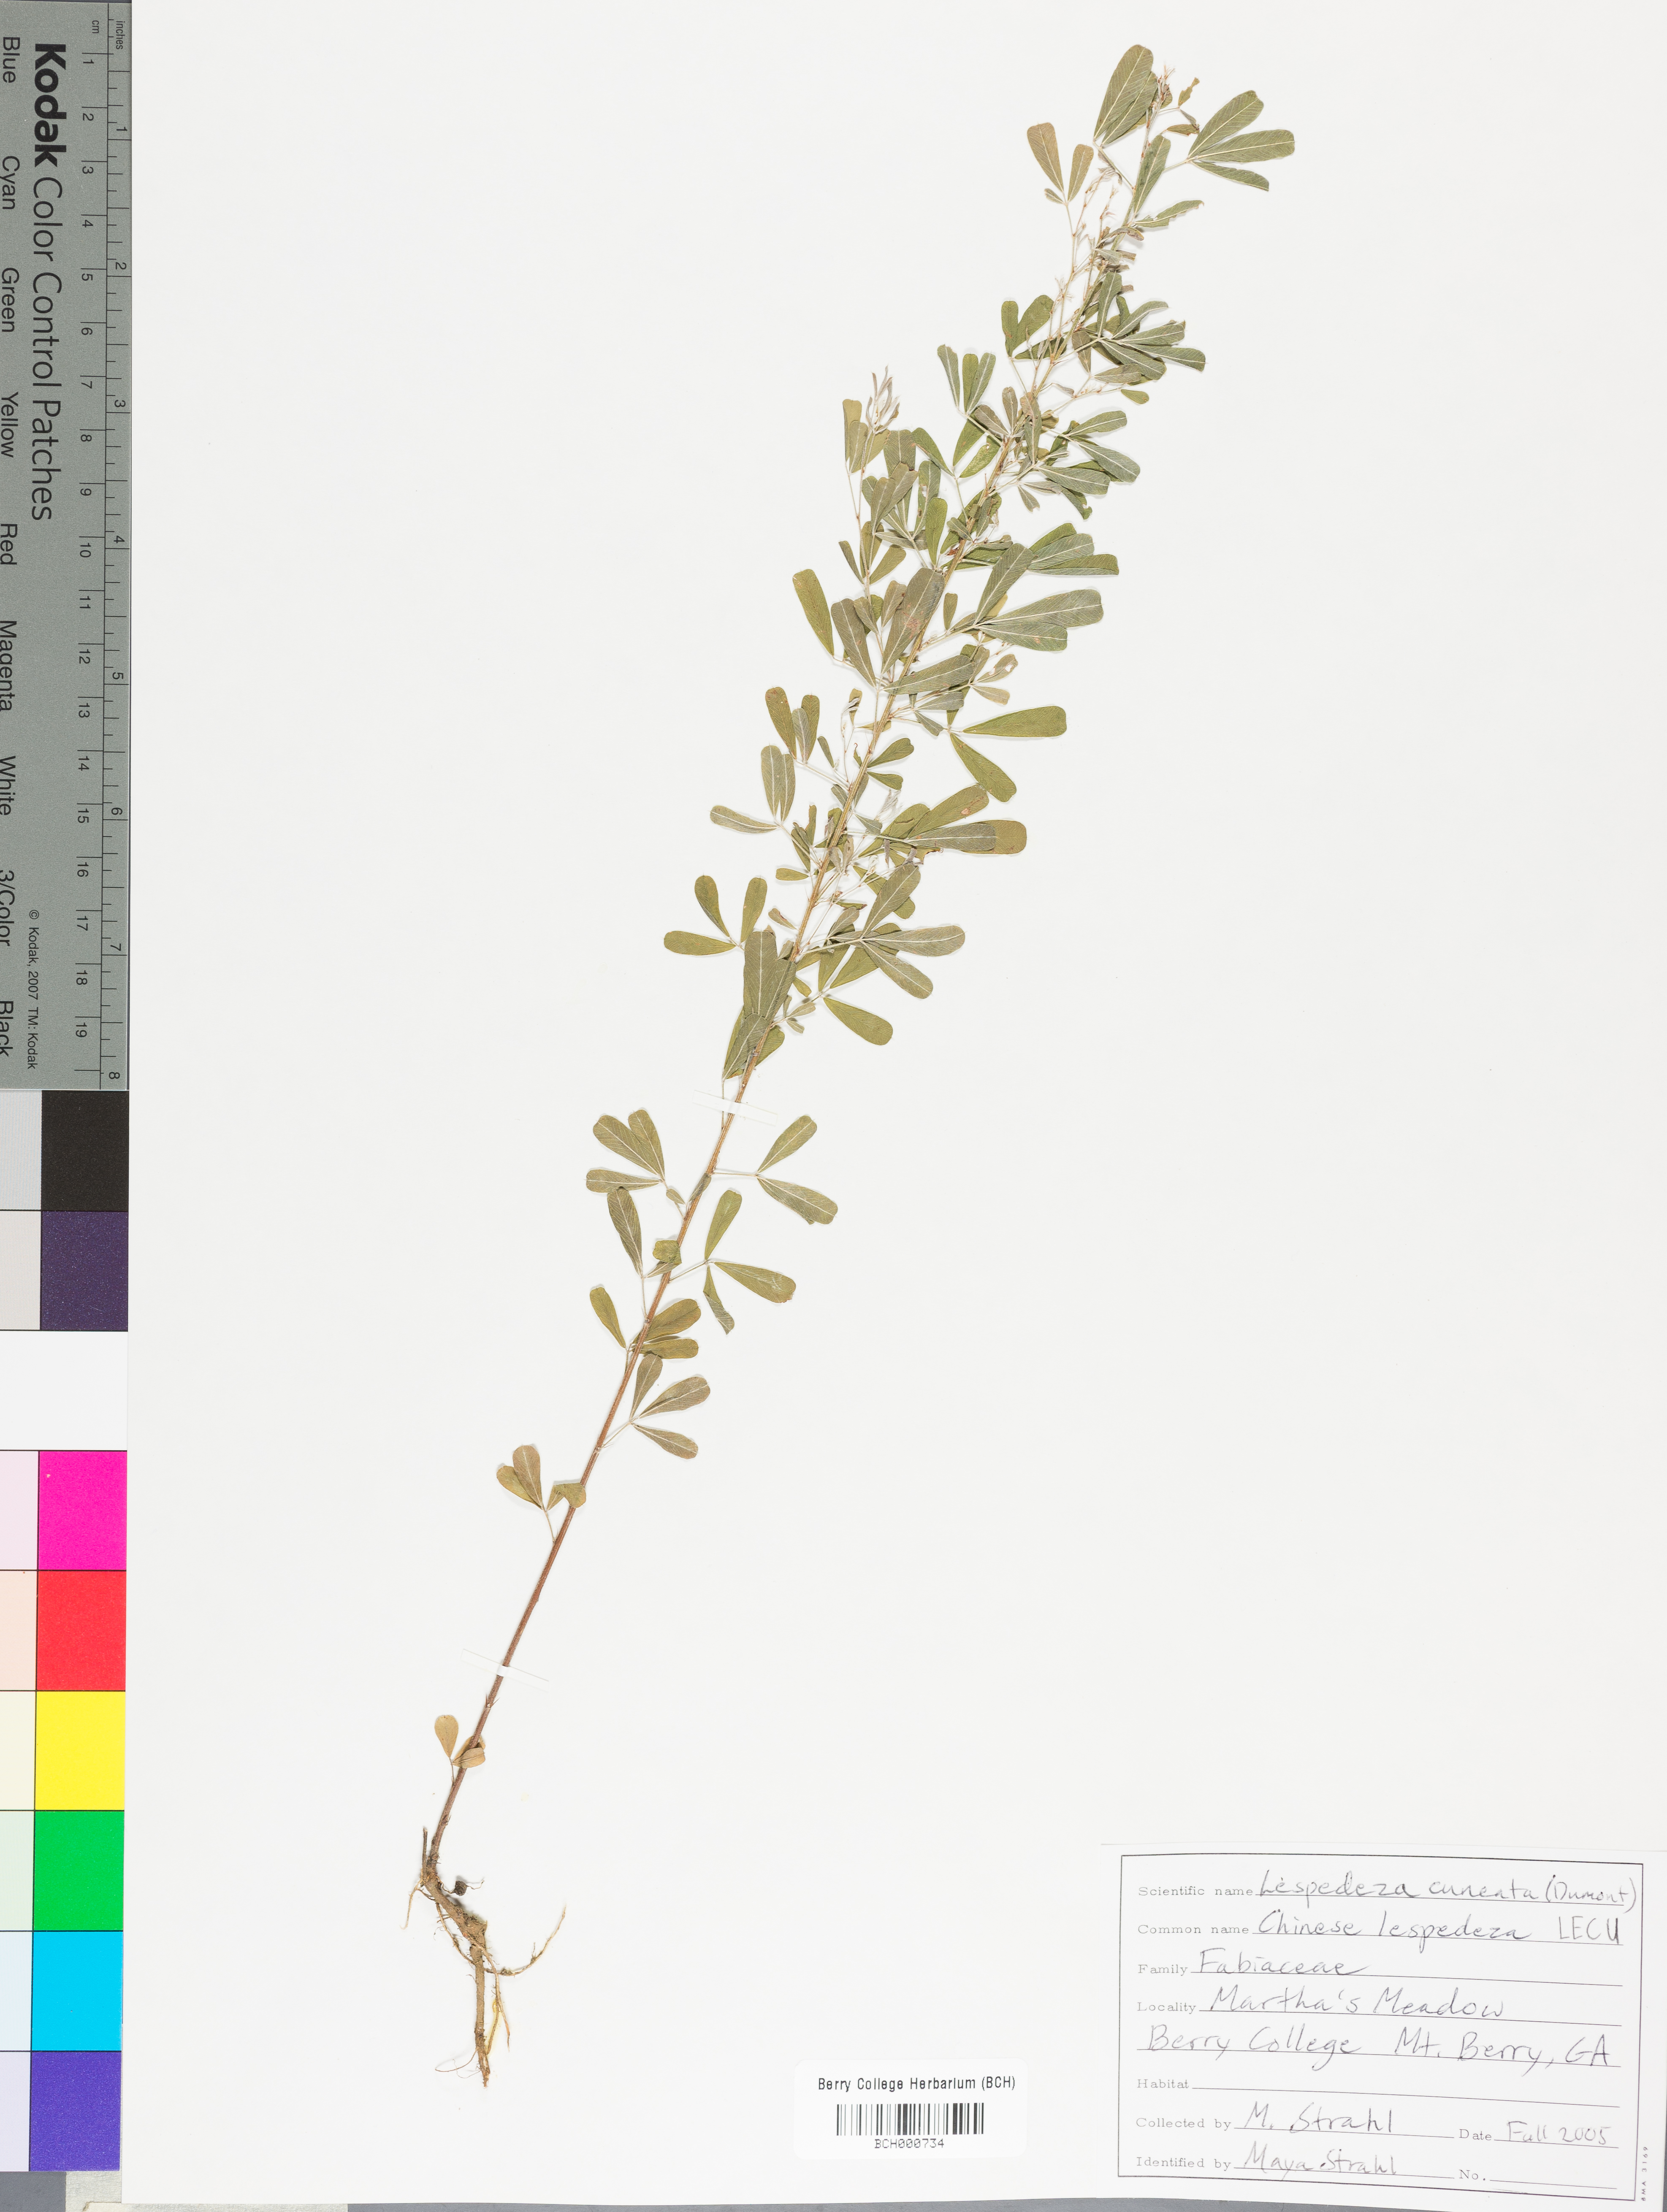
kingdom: Plantae
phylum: Tracheophyta
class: Magnoliopsida
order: Fabales
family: Fabaceae
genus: Lespedeza
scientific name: Lespedeza cuneata
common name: Chinese bush-clover
